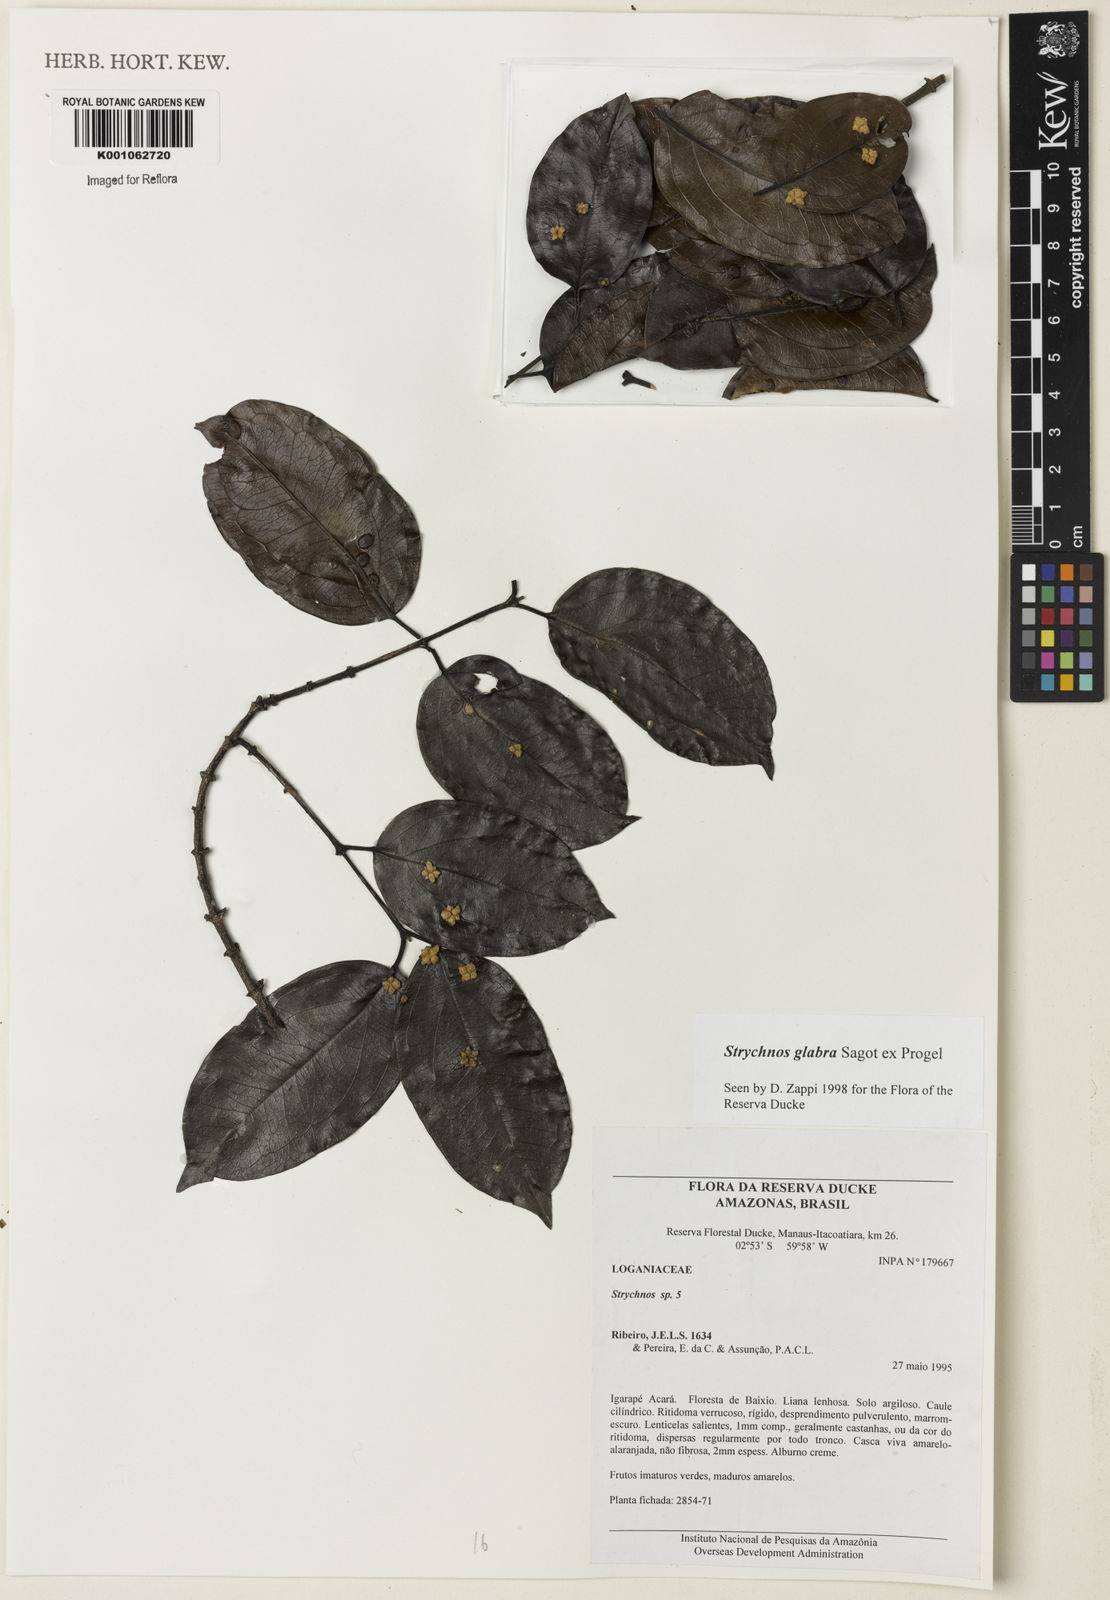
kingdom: Plantae
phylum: Tracheophyta
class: Magnoliopsida
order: Gentianales
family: Loganiaceae
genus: Strychnos
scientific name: Strychnos glabra
